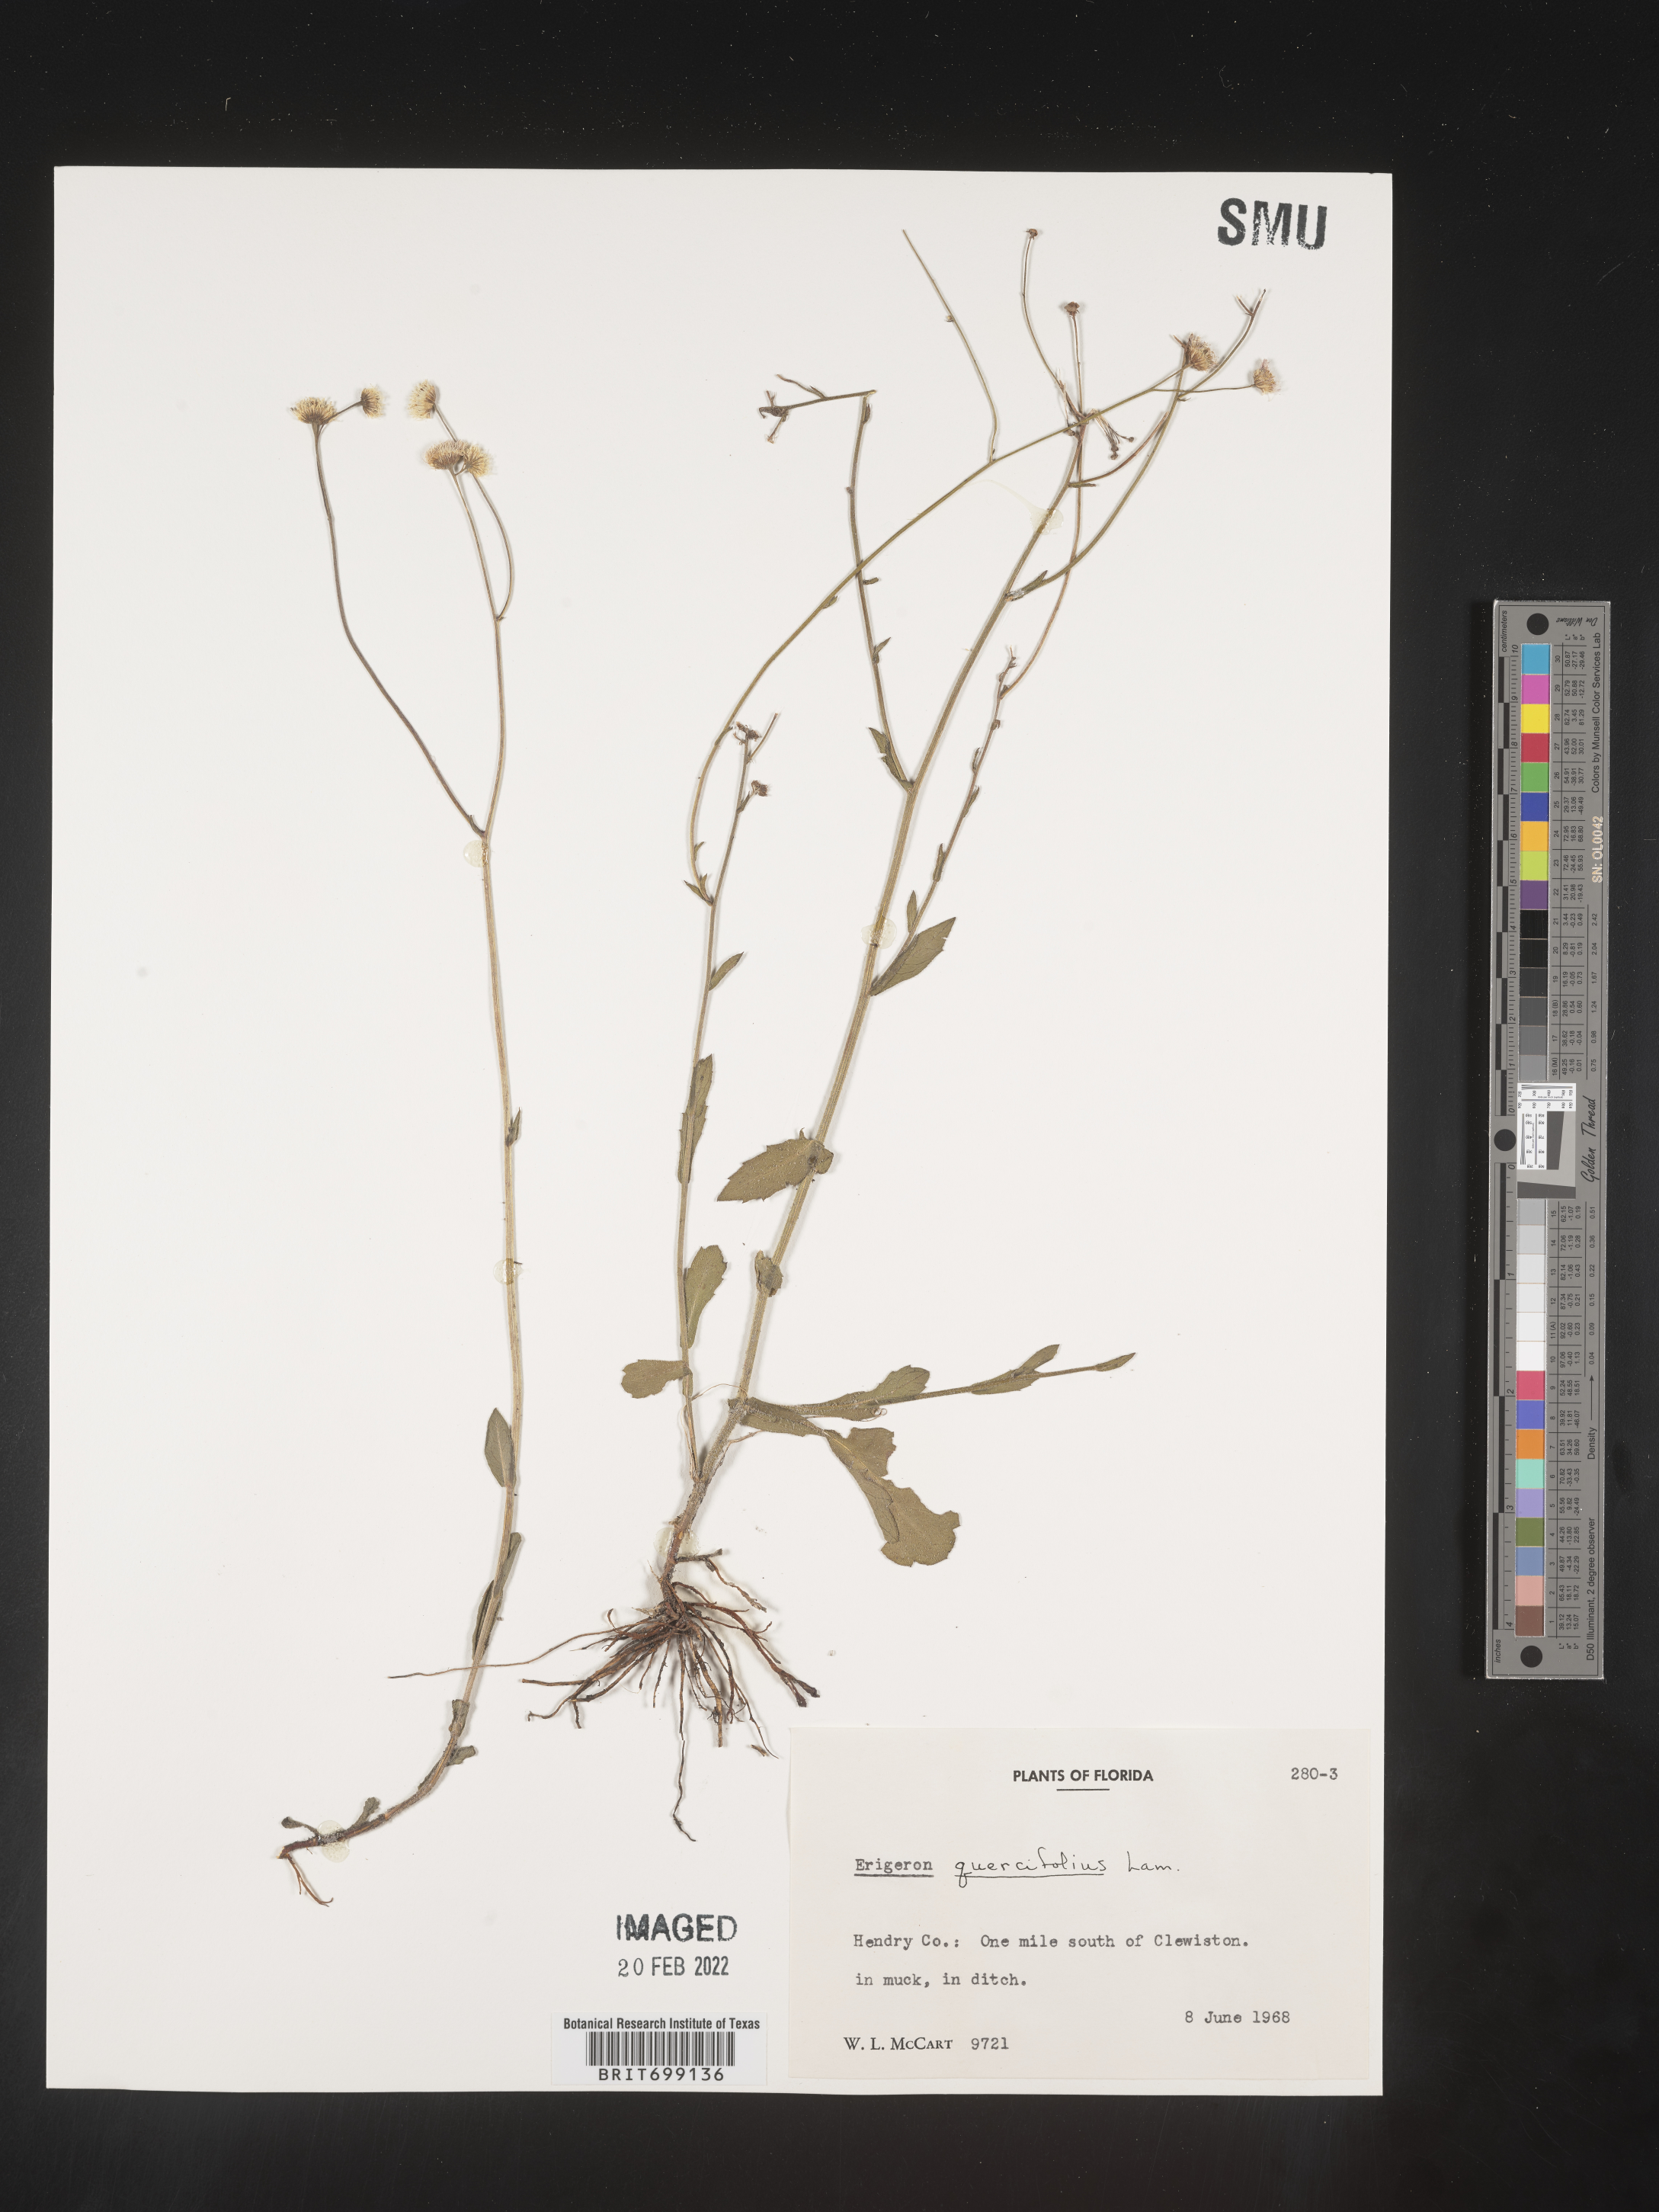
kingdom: Plantae
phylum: Tracheophyta
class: Magnoliopsida
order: Asterales
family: Asteraceae
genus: Erigeron
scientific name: Erigeron quercifolius
